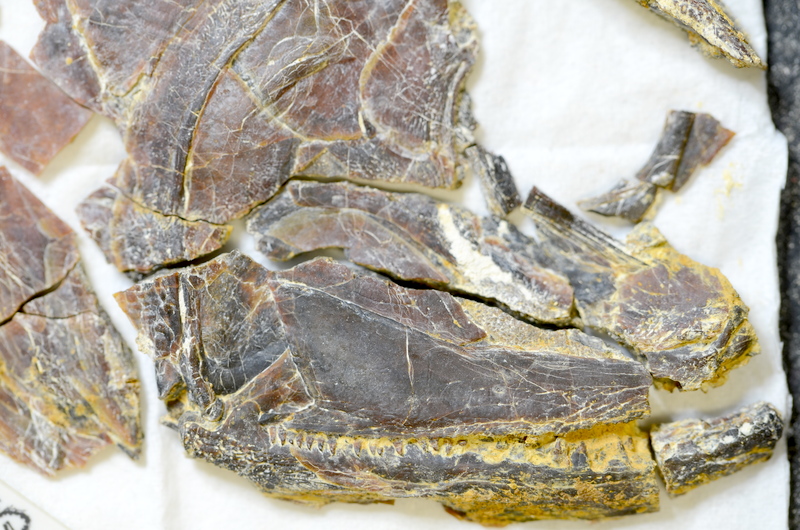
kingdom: Animalia
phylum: Chordata
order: Amiiformes
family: Ionoscopidae
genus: Ionoscopus
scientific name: Ionoscopus
